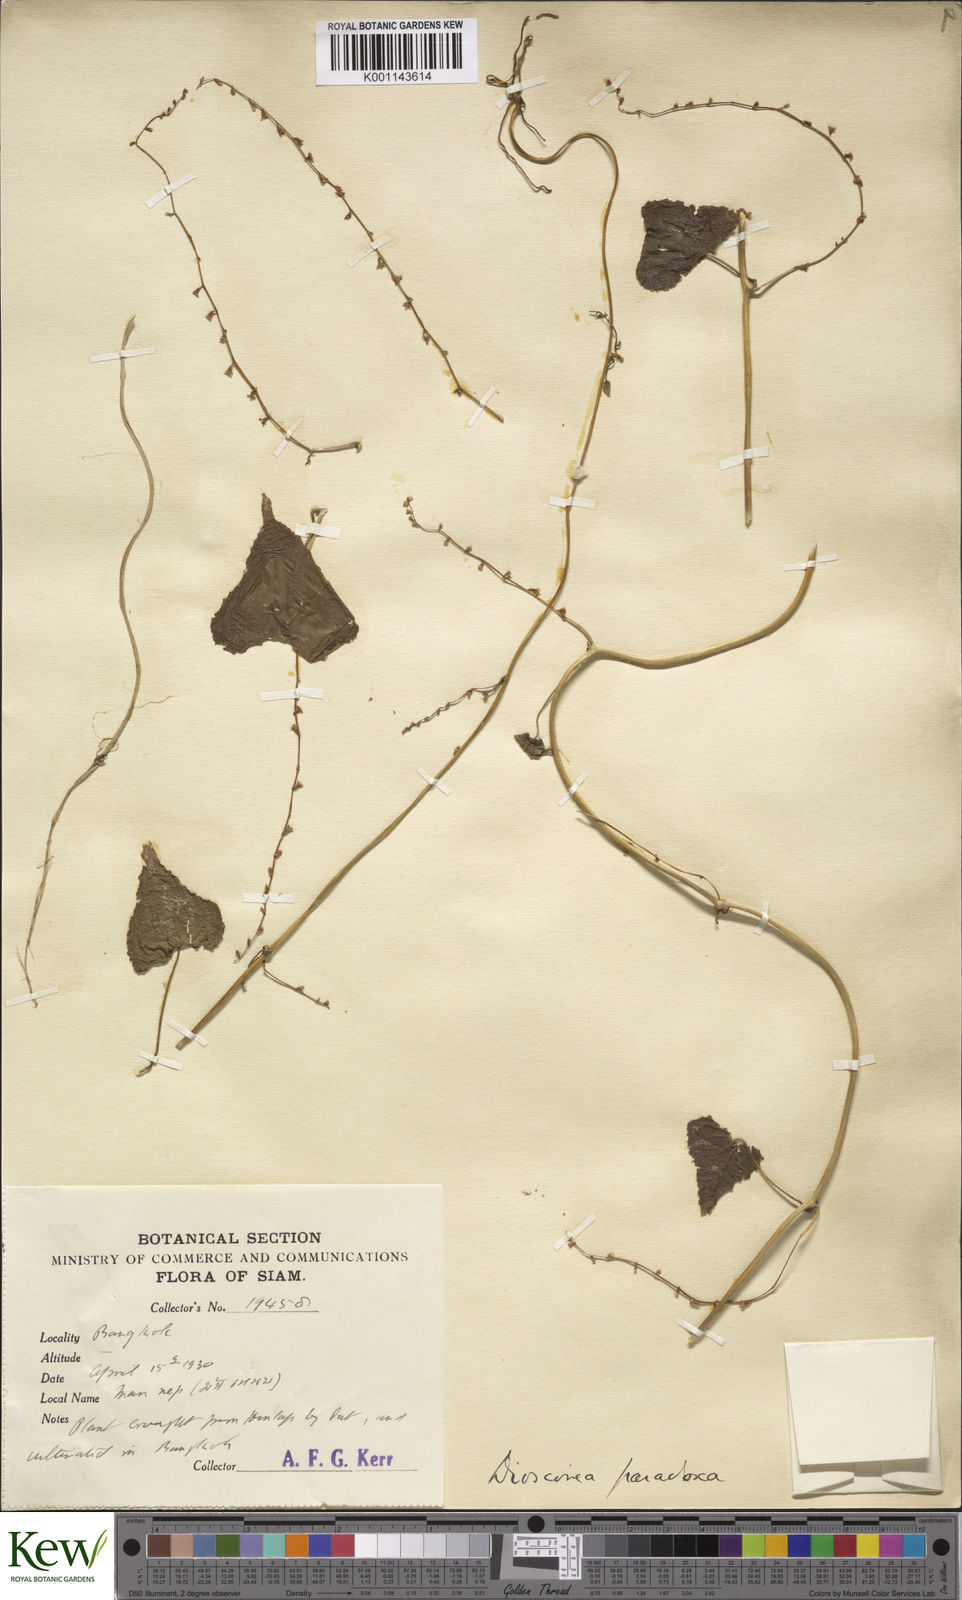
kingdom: Plantae
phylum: Tracheophyta
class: Liliopsida
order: Dioscoreales
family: Dioscoreaceae
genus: Dioscorea
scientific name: Dioscorea paradoxa
